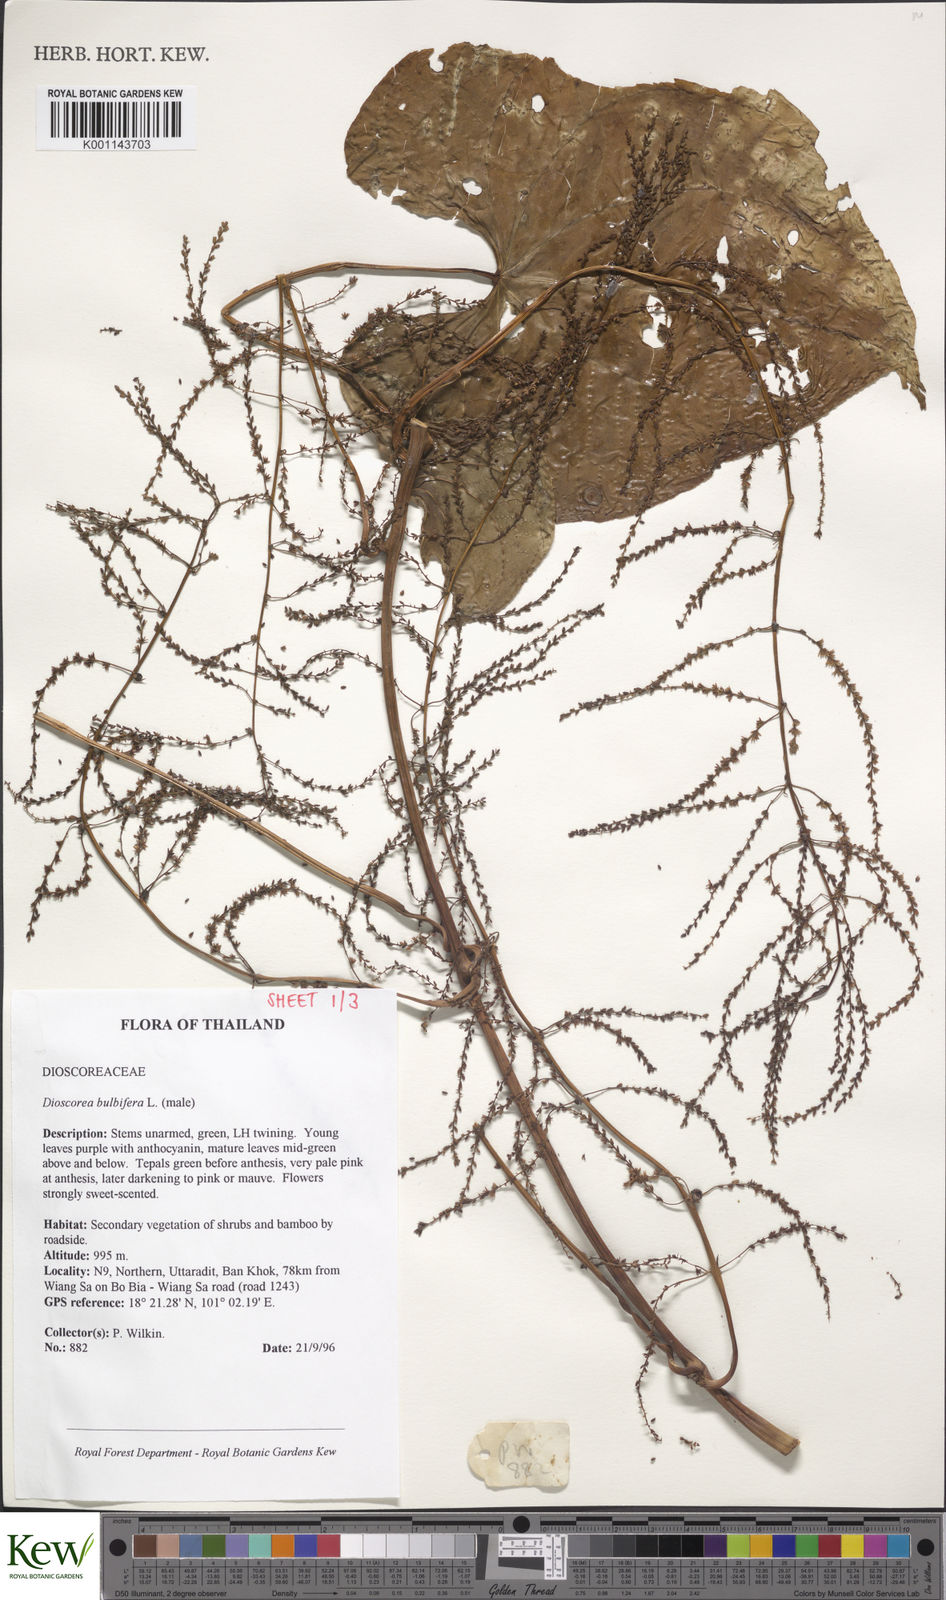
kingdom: Plantae
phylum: Tracheophyta
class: Liliopsida
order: Dioscoreales
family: Dioscoreaceae
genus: Dioscorea
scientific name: Dioscorea bulbifera
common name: Air yam
